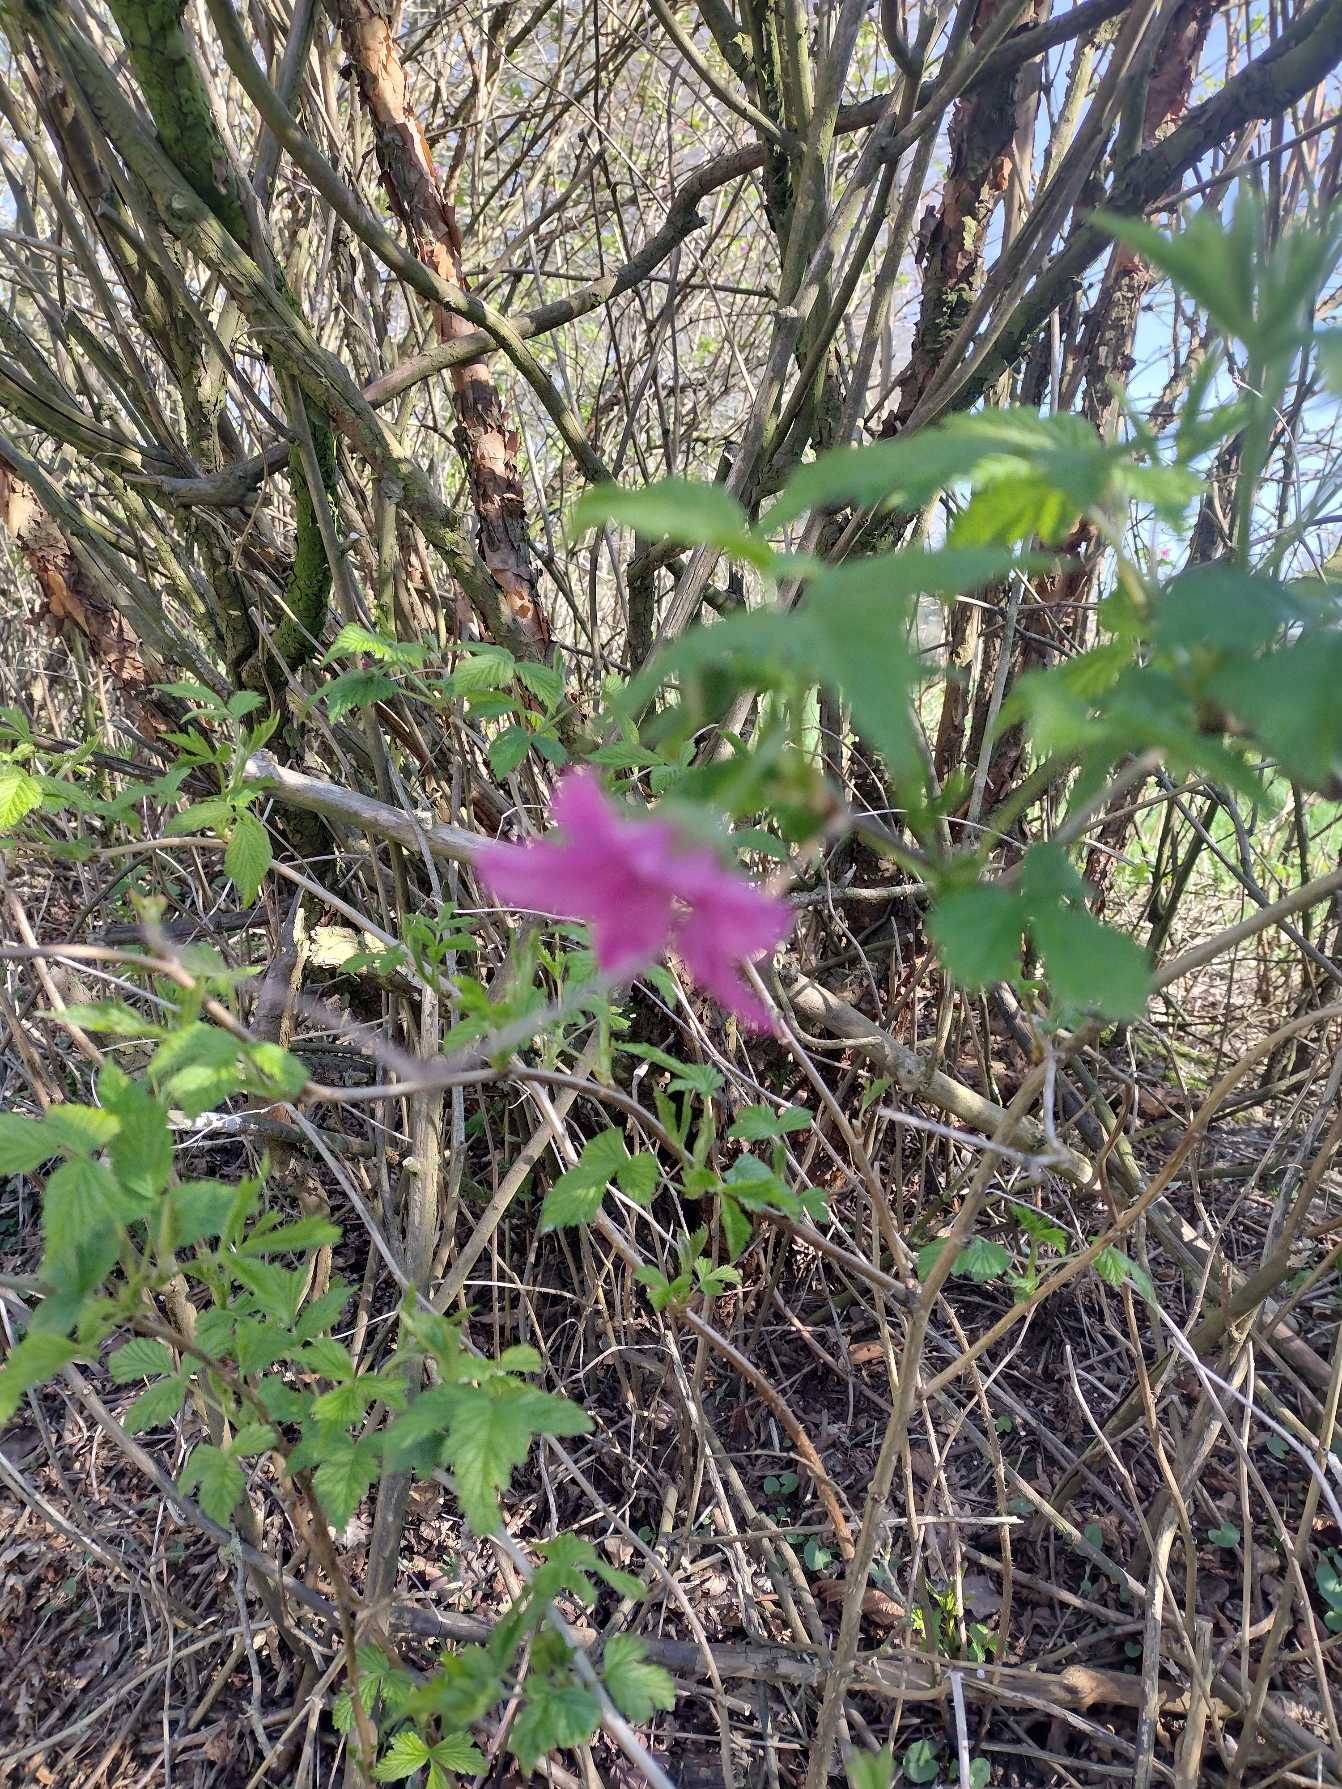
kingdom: Plantae
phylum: Tracheophyta
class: Magnoliopsida
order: Rosales
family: Rosaceae
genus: Rubus
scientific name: Rubus spectabilis
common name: Laksebær
